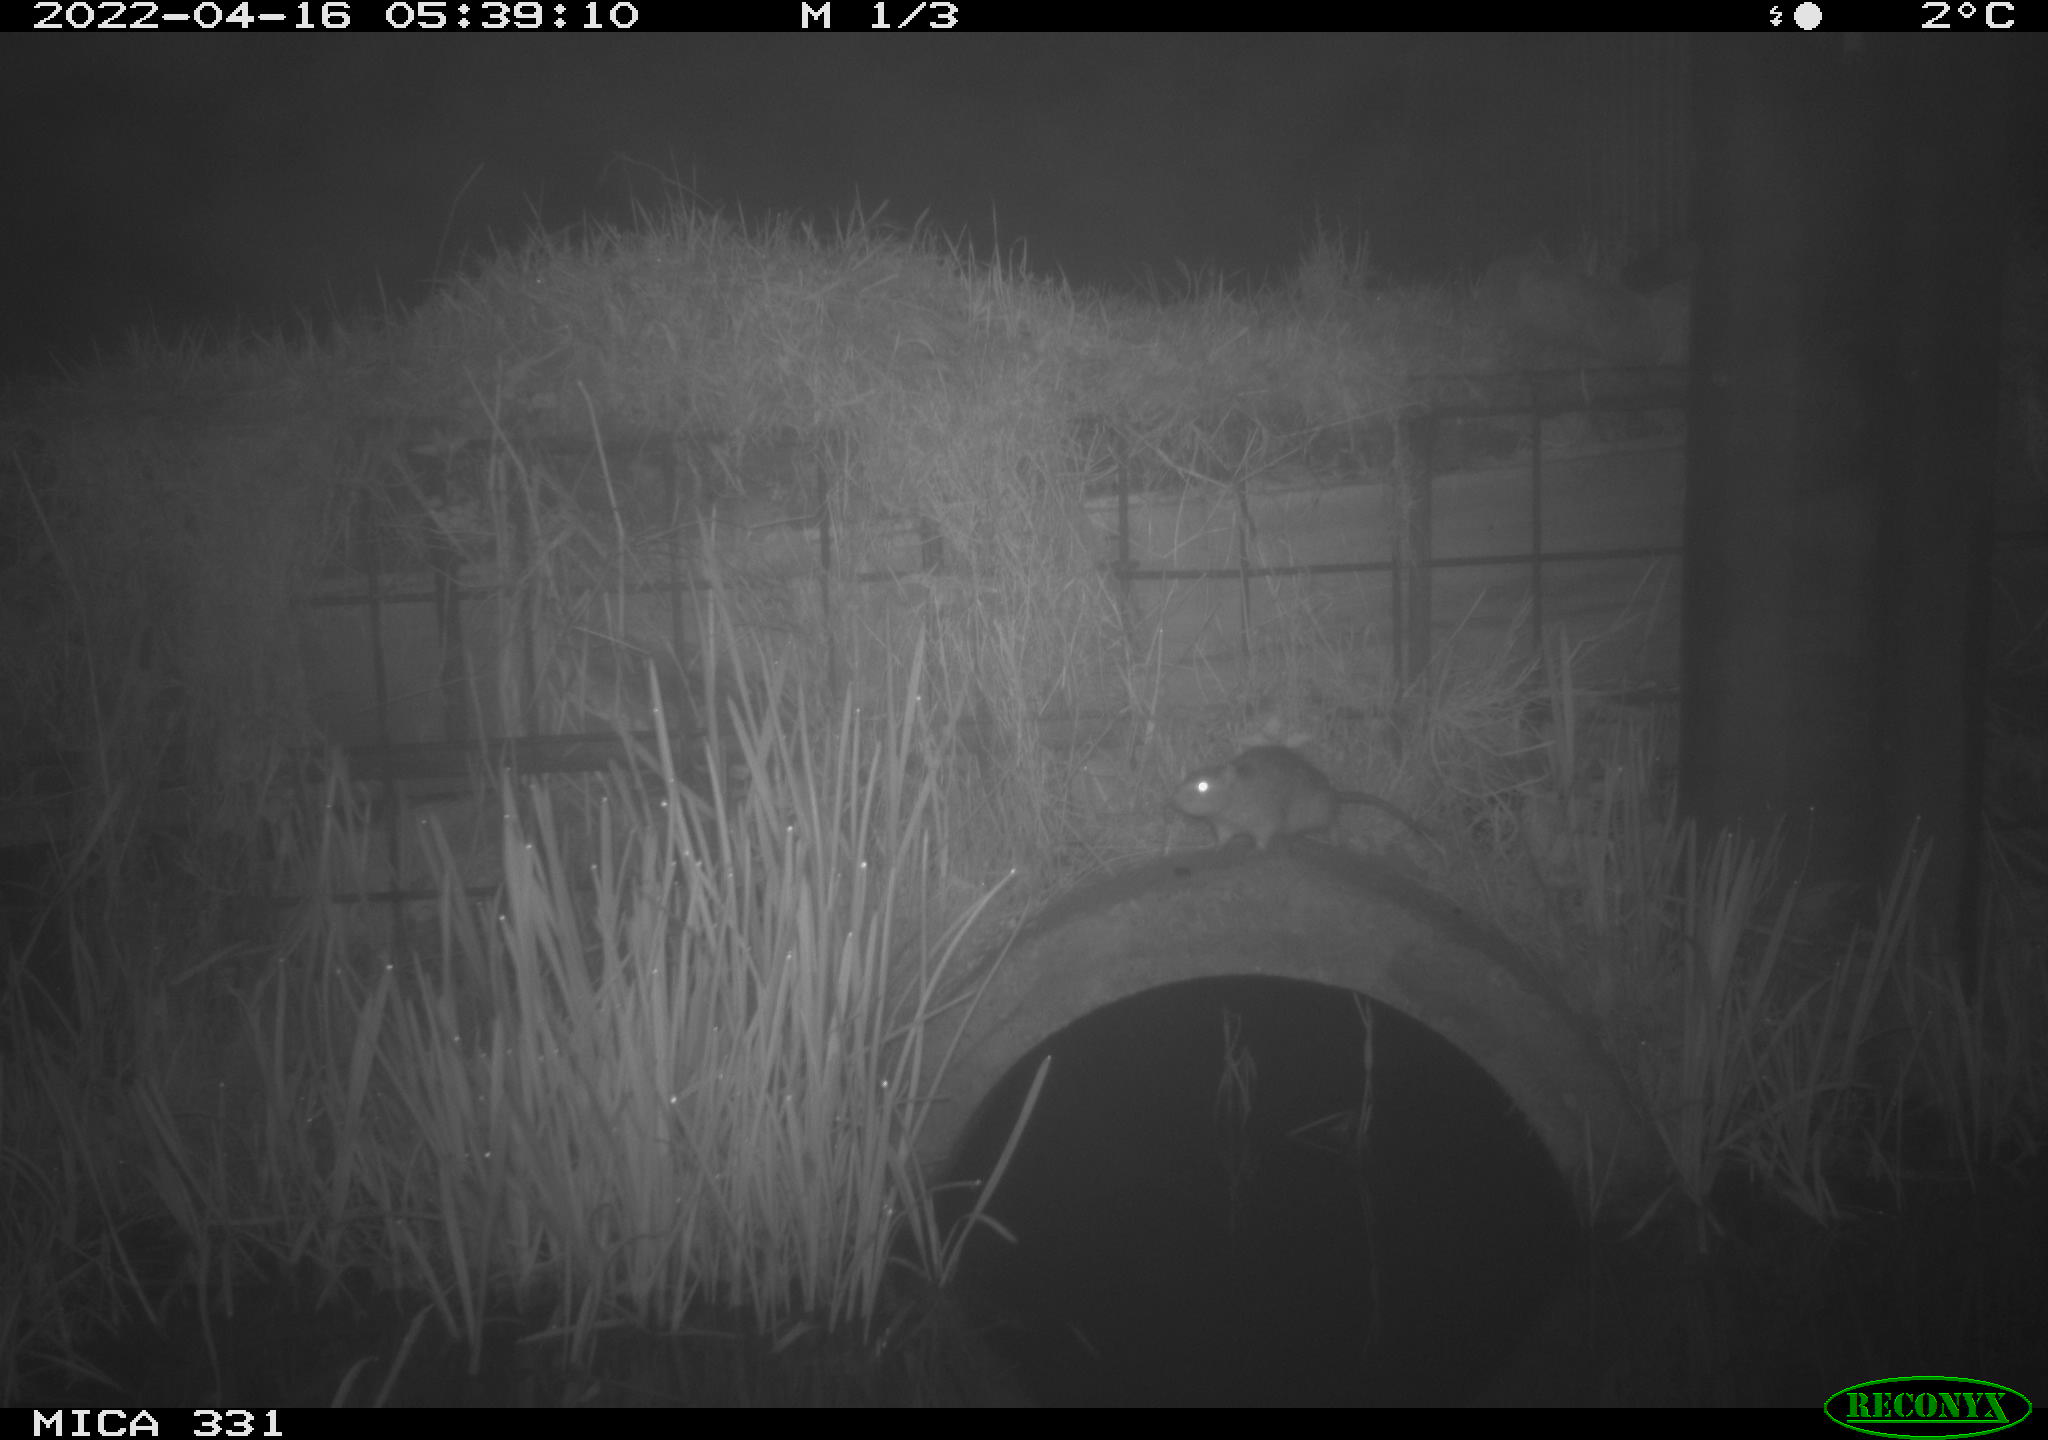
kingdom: Animalia
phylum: Chordata
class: Mammalia
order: Rodentia
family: Muridae
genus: Rattus
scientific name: Rattus norvegicus
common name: Brown rat
